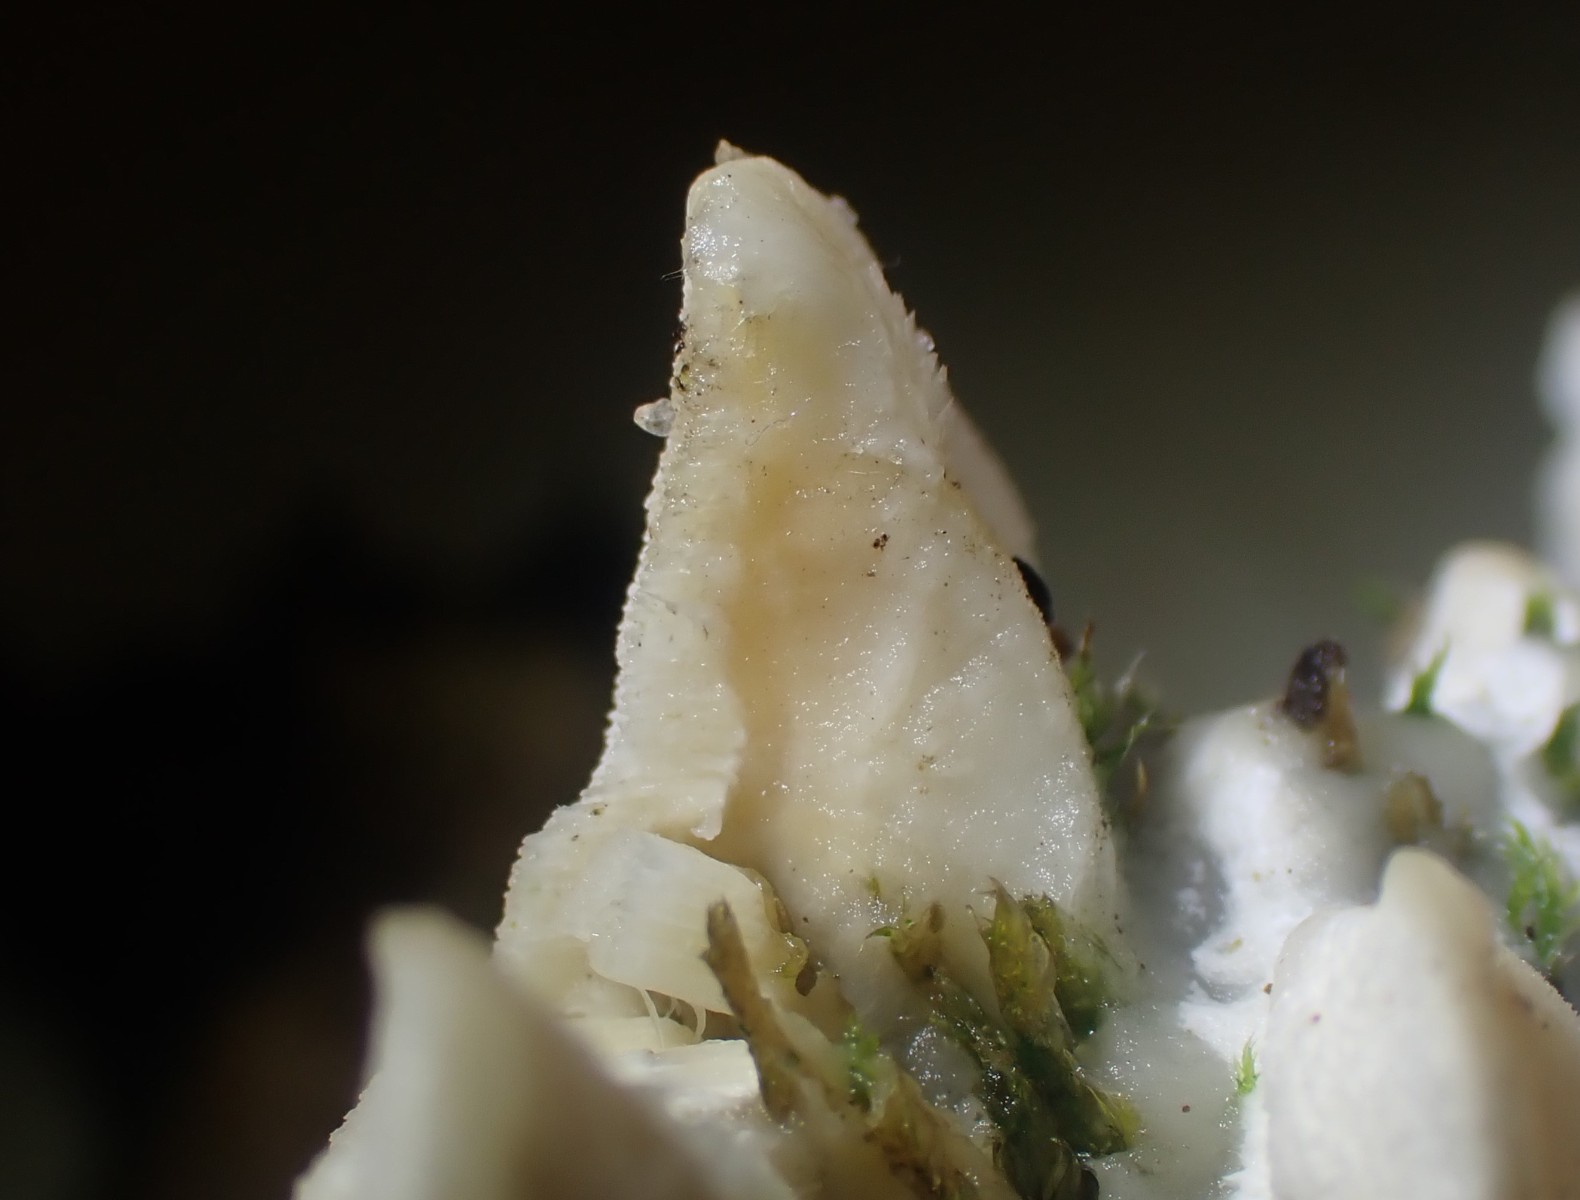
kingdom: Fungi
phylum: Basidiomycota
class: Agaricomycetes
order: Hymenochaetales
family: Oxyporaceae
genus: Oxyporus
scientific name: Oxyporus populinus
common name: sammenvokset trylleporesvamp
